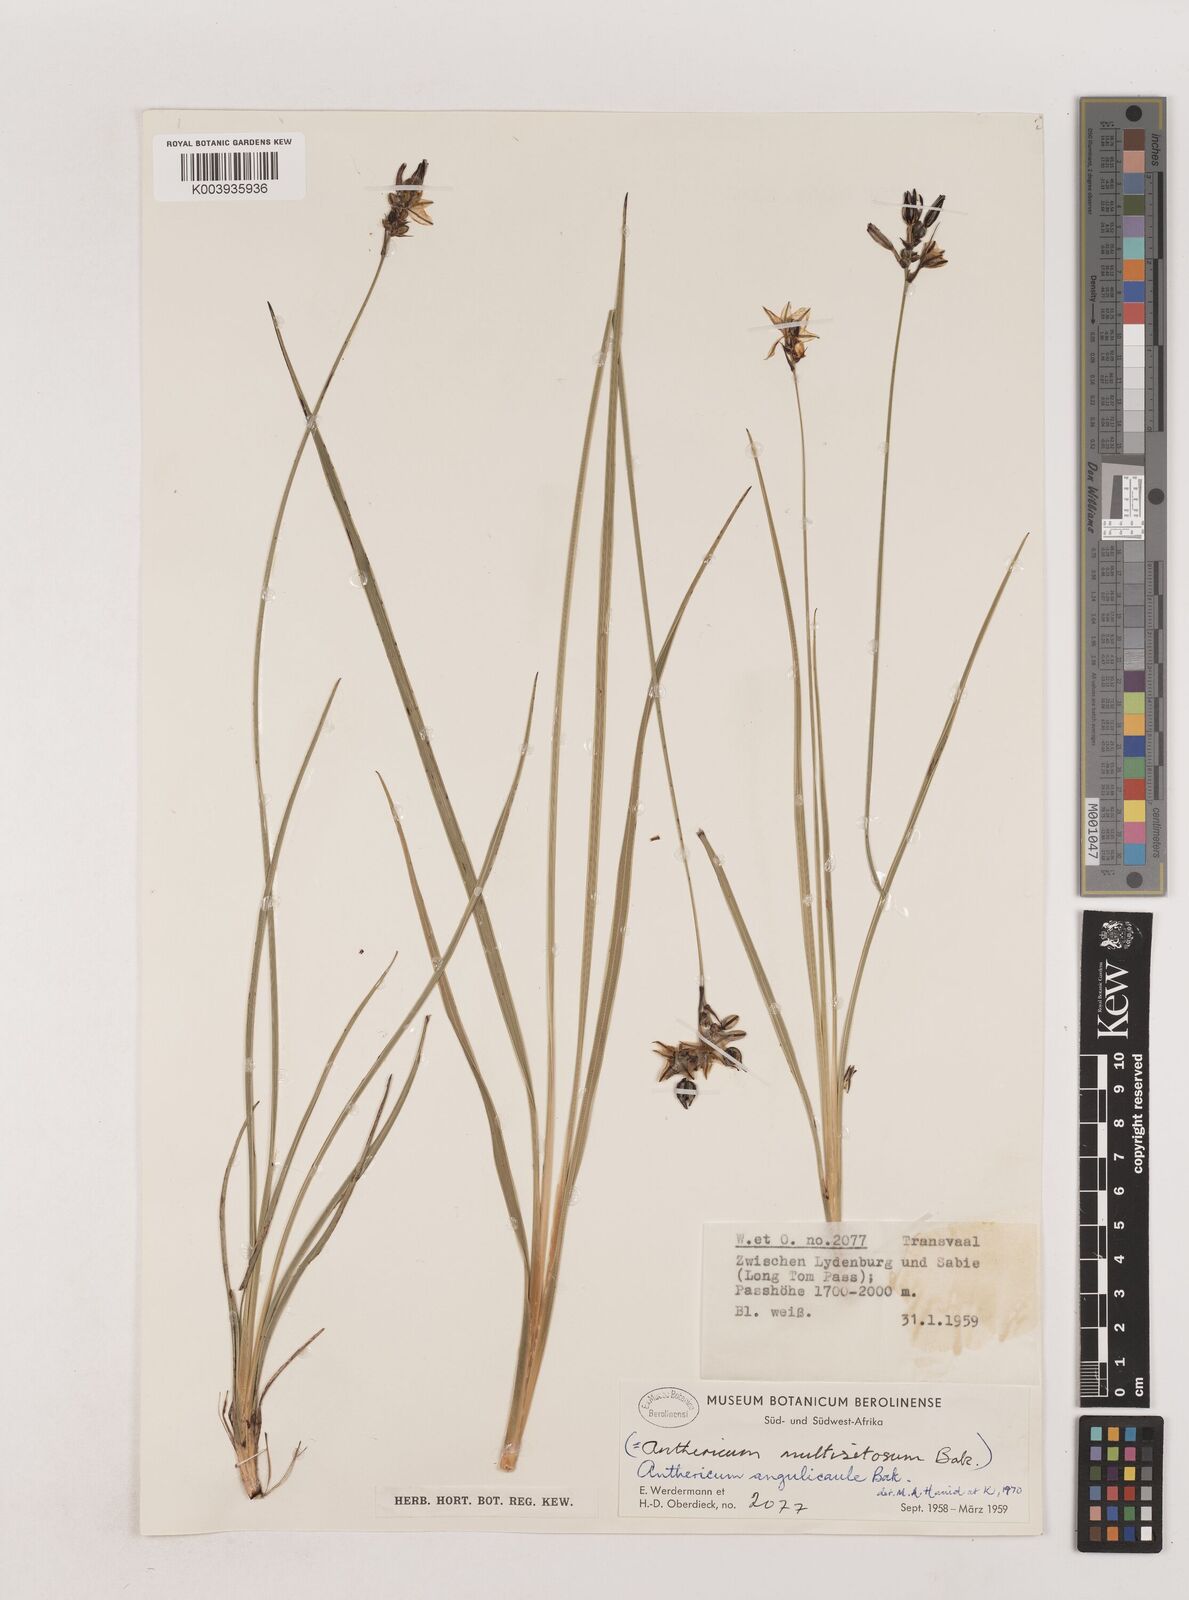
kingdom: Plantae
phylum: Tracheophyta
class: Liliopsida
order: Asparagales
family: Asparagaceae
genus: Chlorophytum
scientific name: Chlorophytum angulicaule
